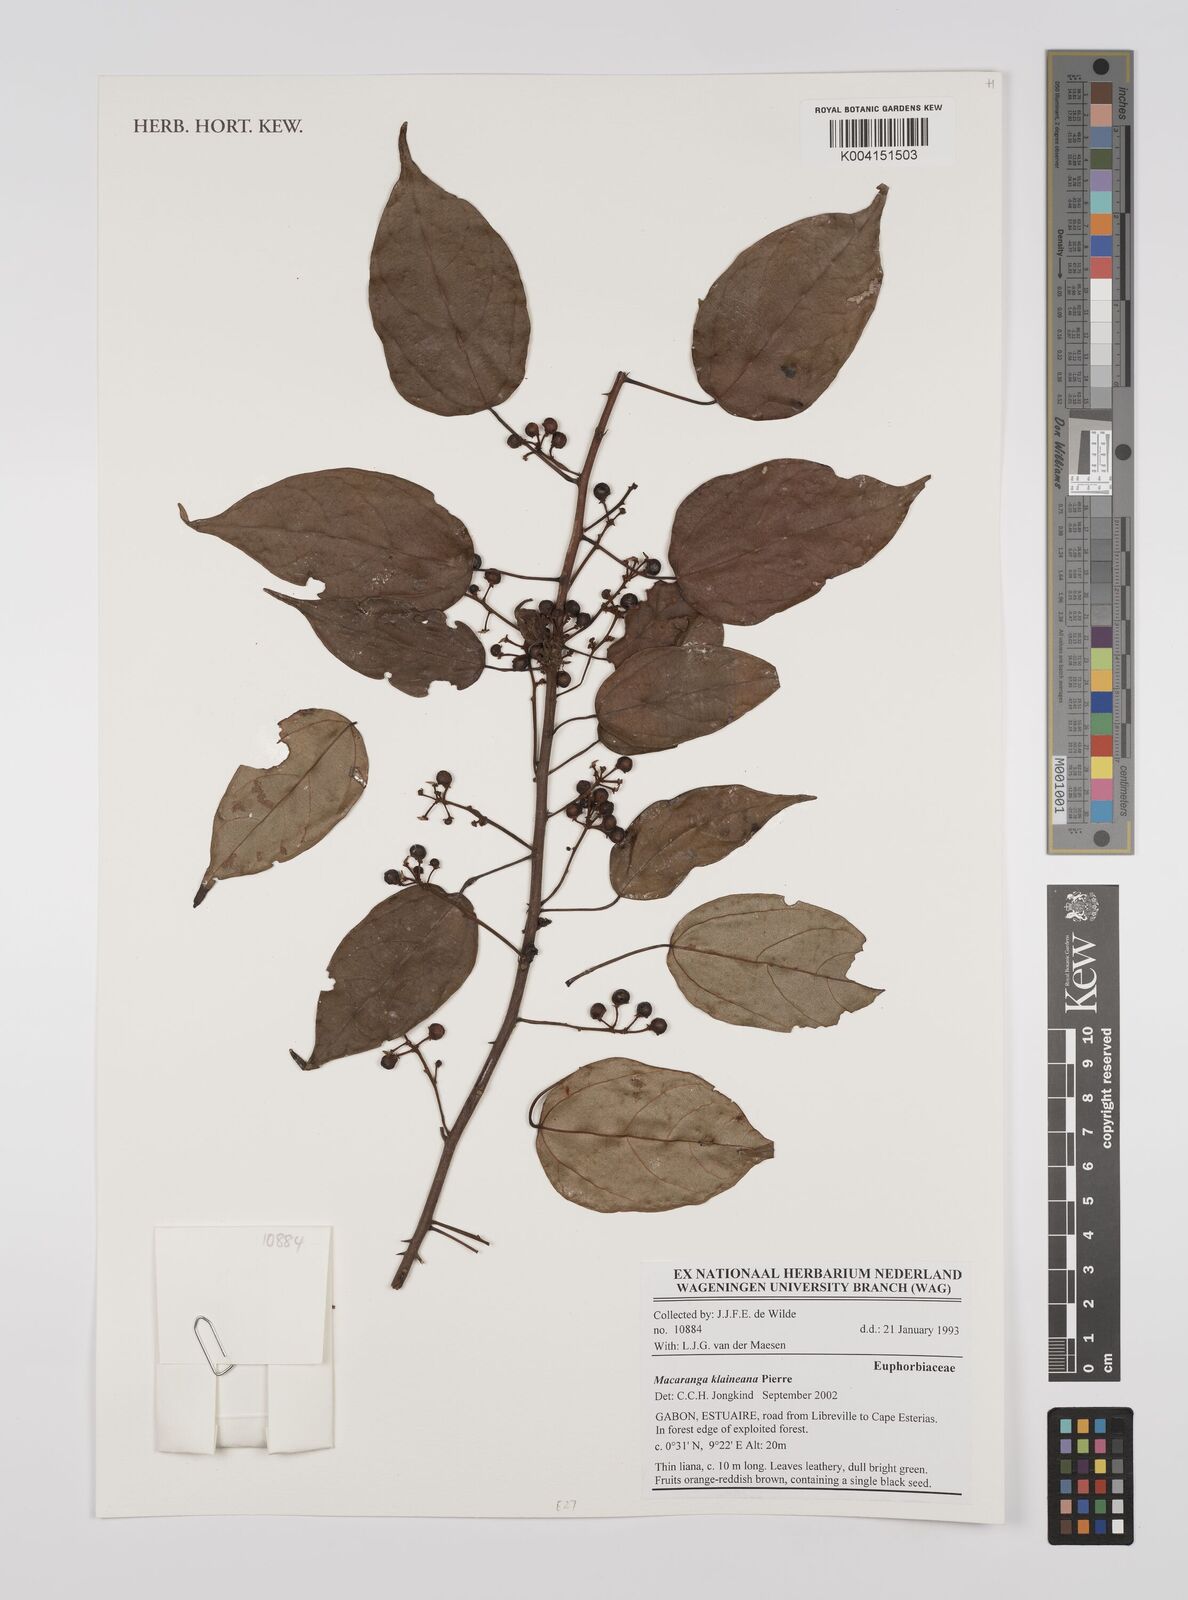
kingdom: Plantae
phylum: Tracheophyta
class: Magnoliopsida
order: Malpighiales
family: Euphorbiaceae
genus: Macaranga
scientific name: Macaranga klaineana
